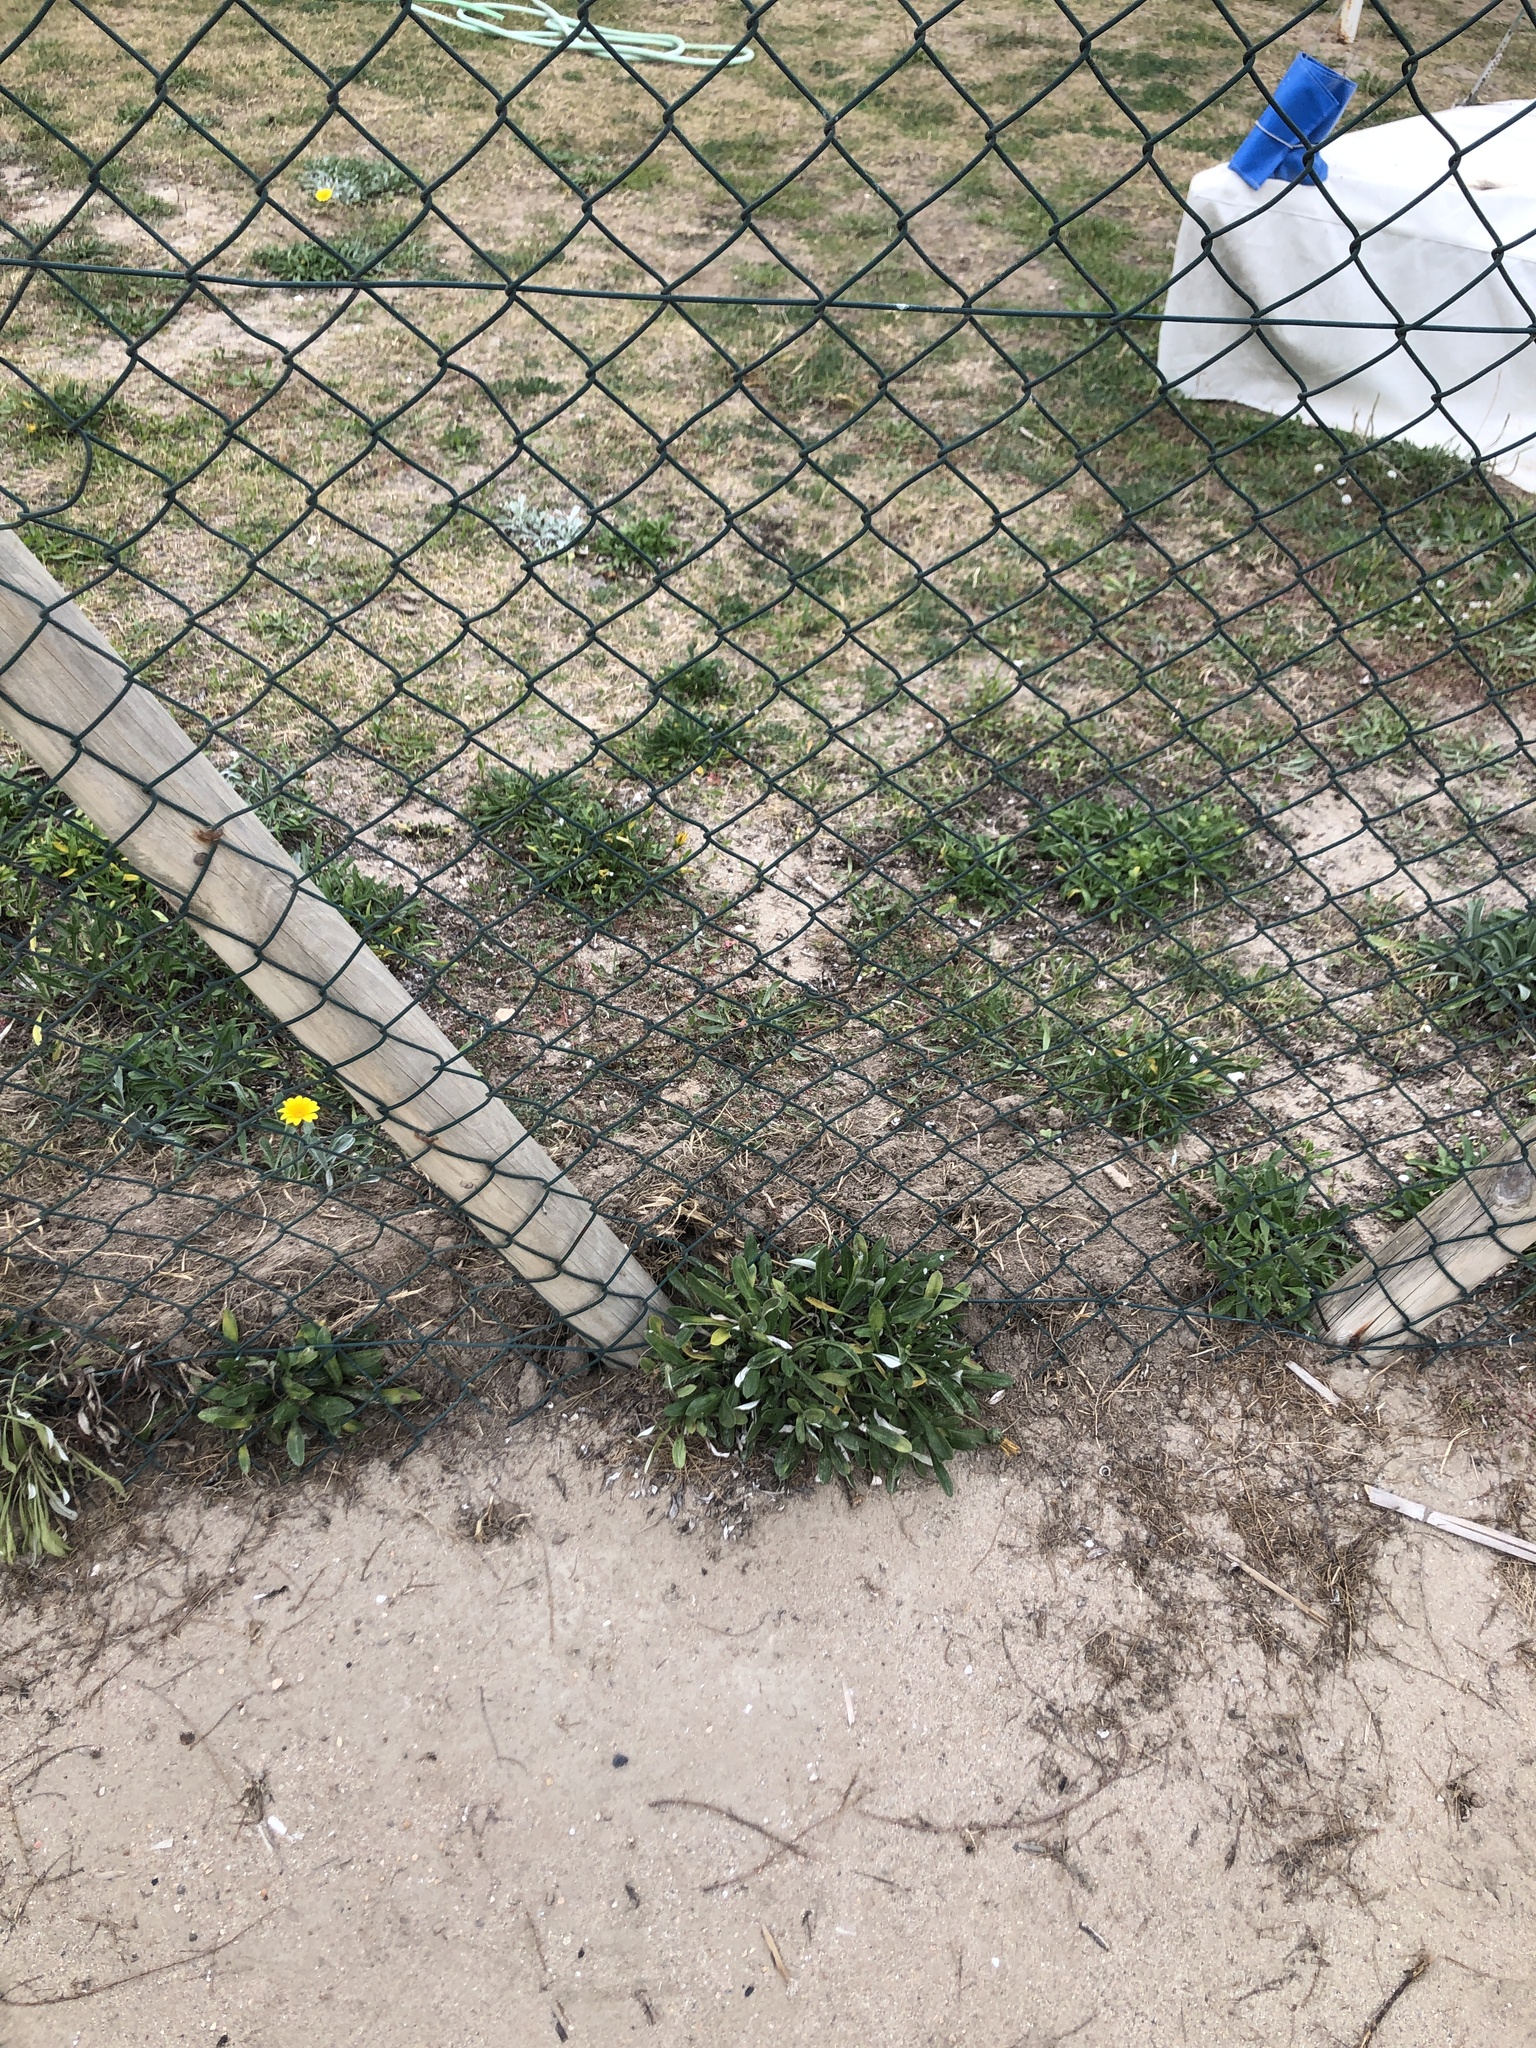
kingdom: Plantae
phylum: Tracheophyta
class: Magnoliopsida
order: Asterales
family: Asteraceae
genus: Gazania
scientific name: Gazania rigens
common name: Treasureflower
